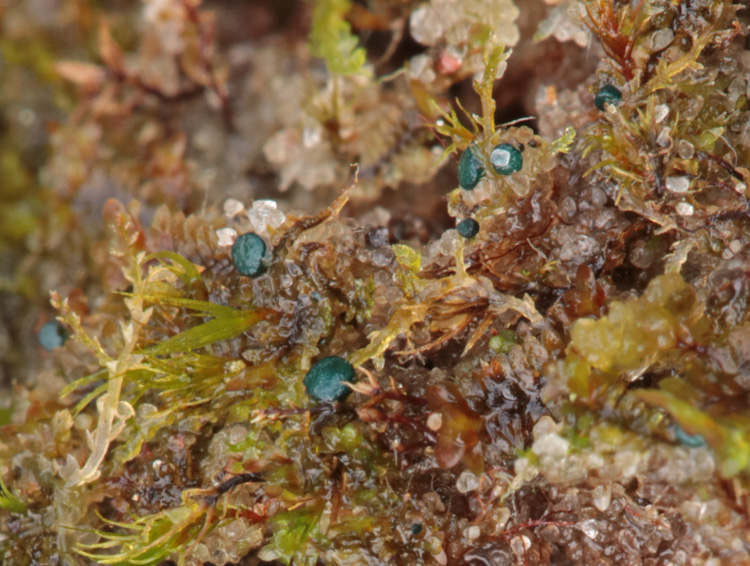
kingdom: Fungi
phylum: Ascomycota
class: Leotiomycetes
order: Leotiales
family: Mniaeciaceae
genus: Mniaecia
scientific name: Mniaecia jungermanniae
